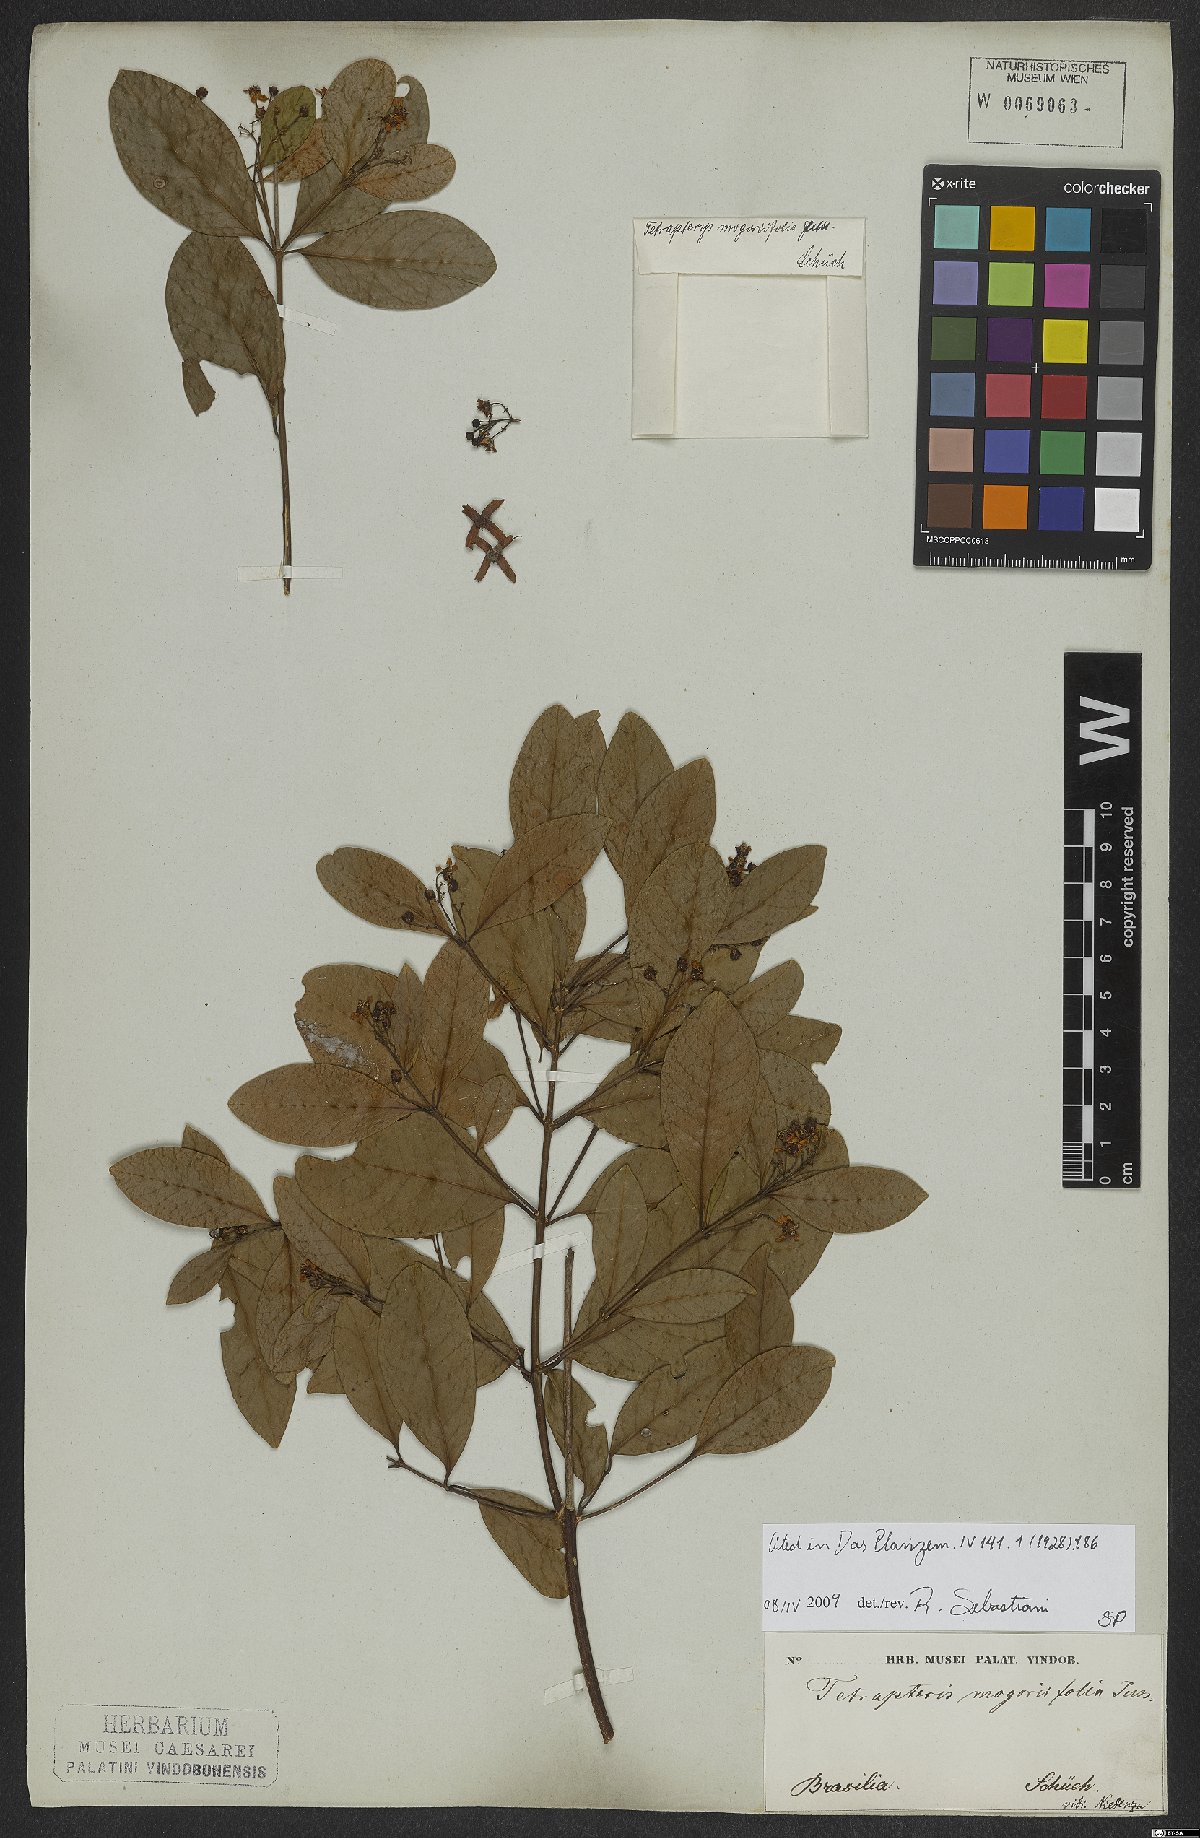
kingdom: Plantae
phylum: Tracheophyta
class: Magnoliopsida
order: Malpighiales
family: Malpighiaceae
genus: Niedenzuella
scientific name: Niedenzuella mogoriifolia
